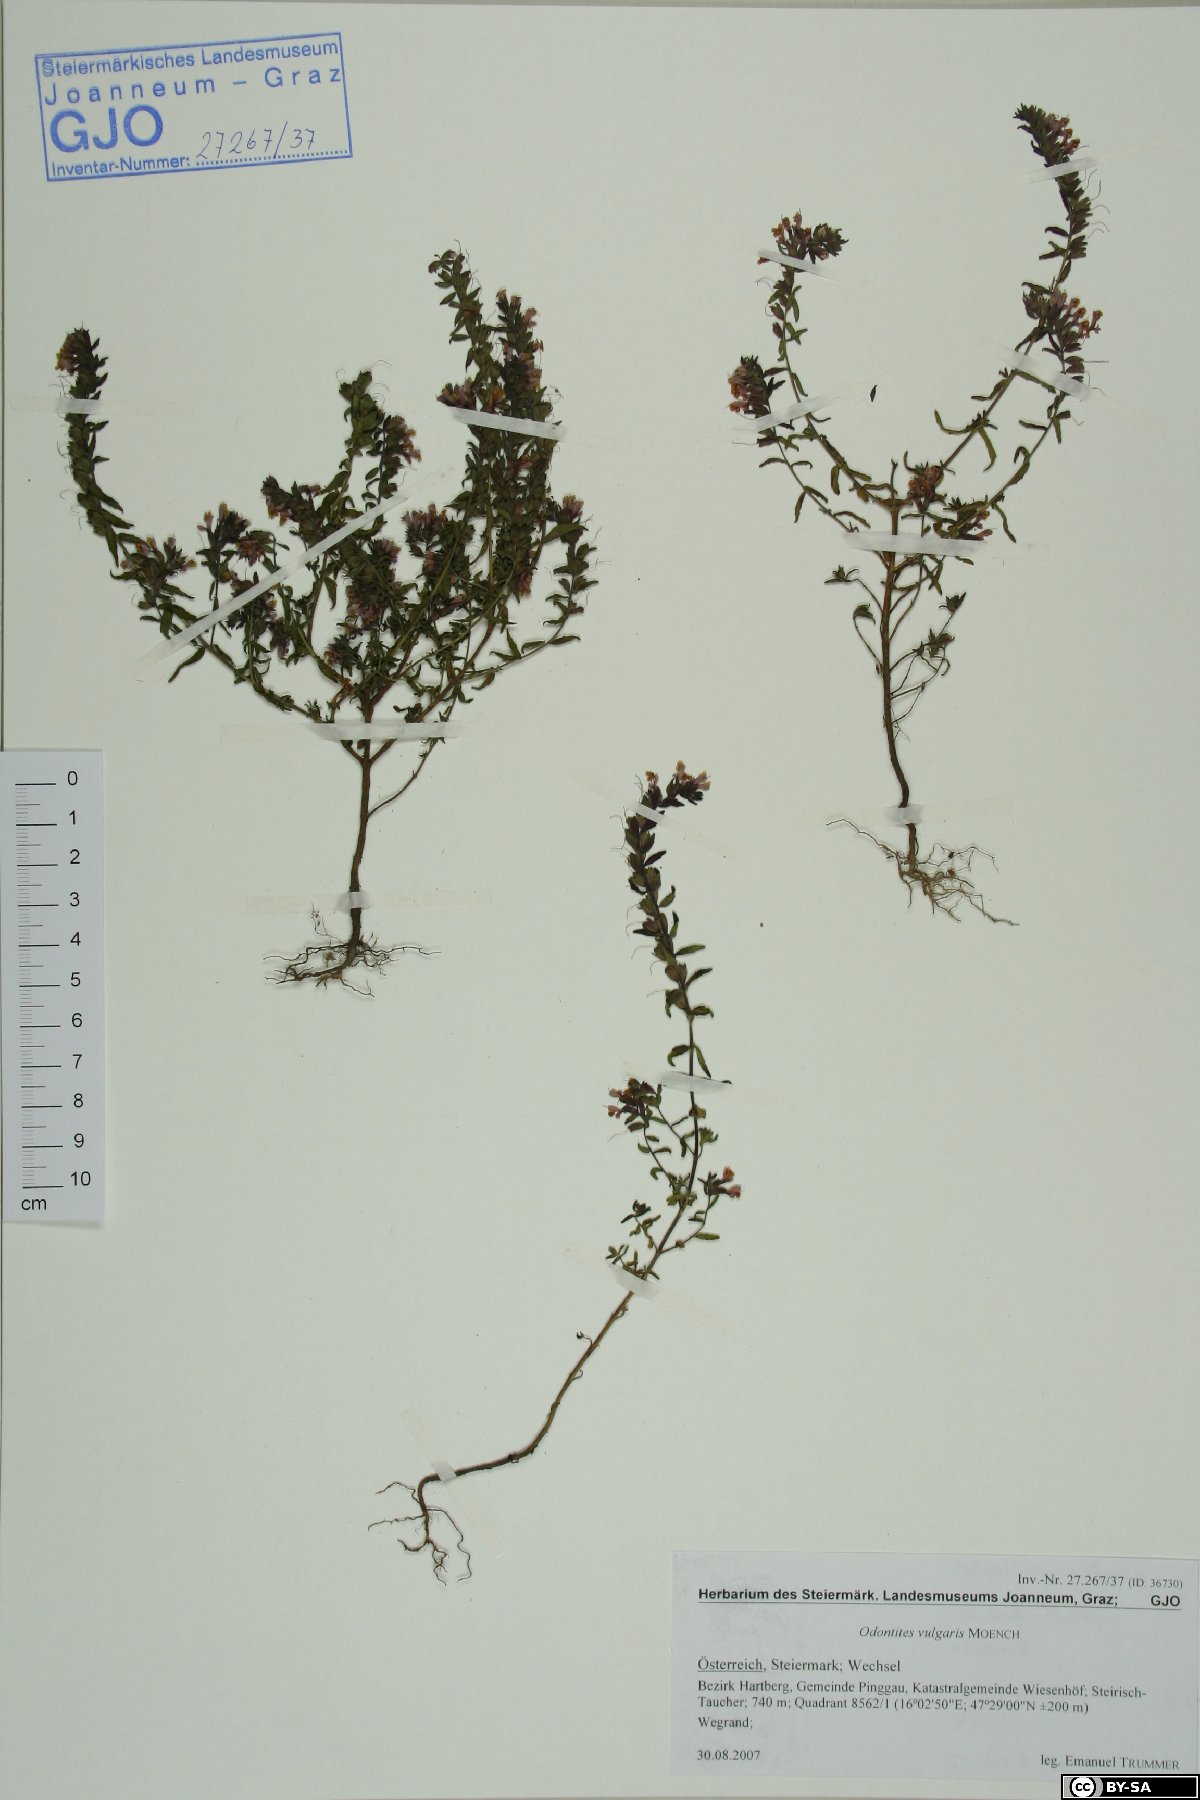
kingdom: Plantae
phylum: Tracheophyta
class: Magnoliopsida
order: Lamiales
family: Orobanchaceae
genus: Odontites
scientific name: Odontites vulgaris
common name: Broomrape
